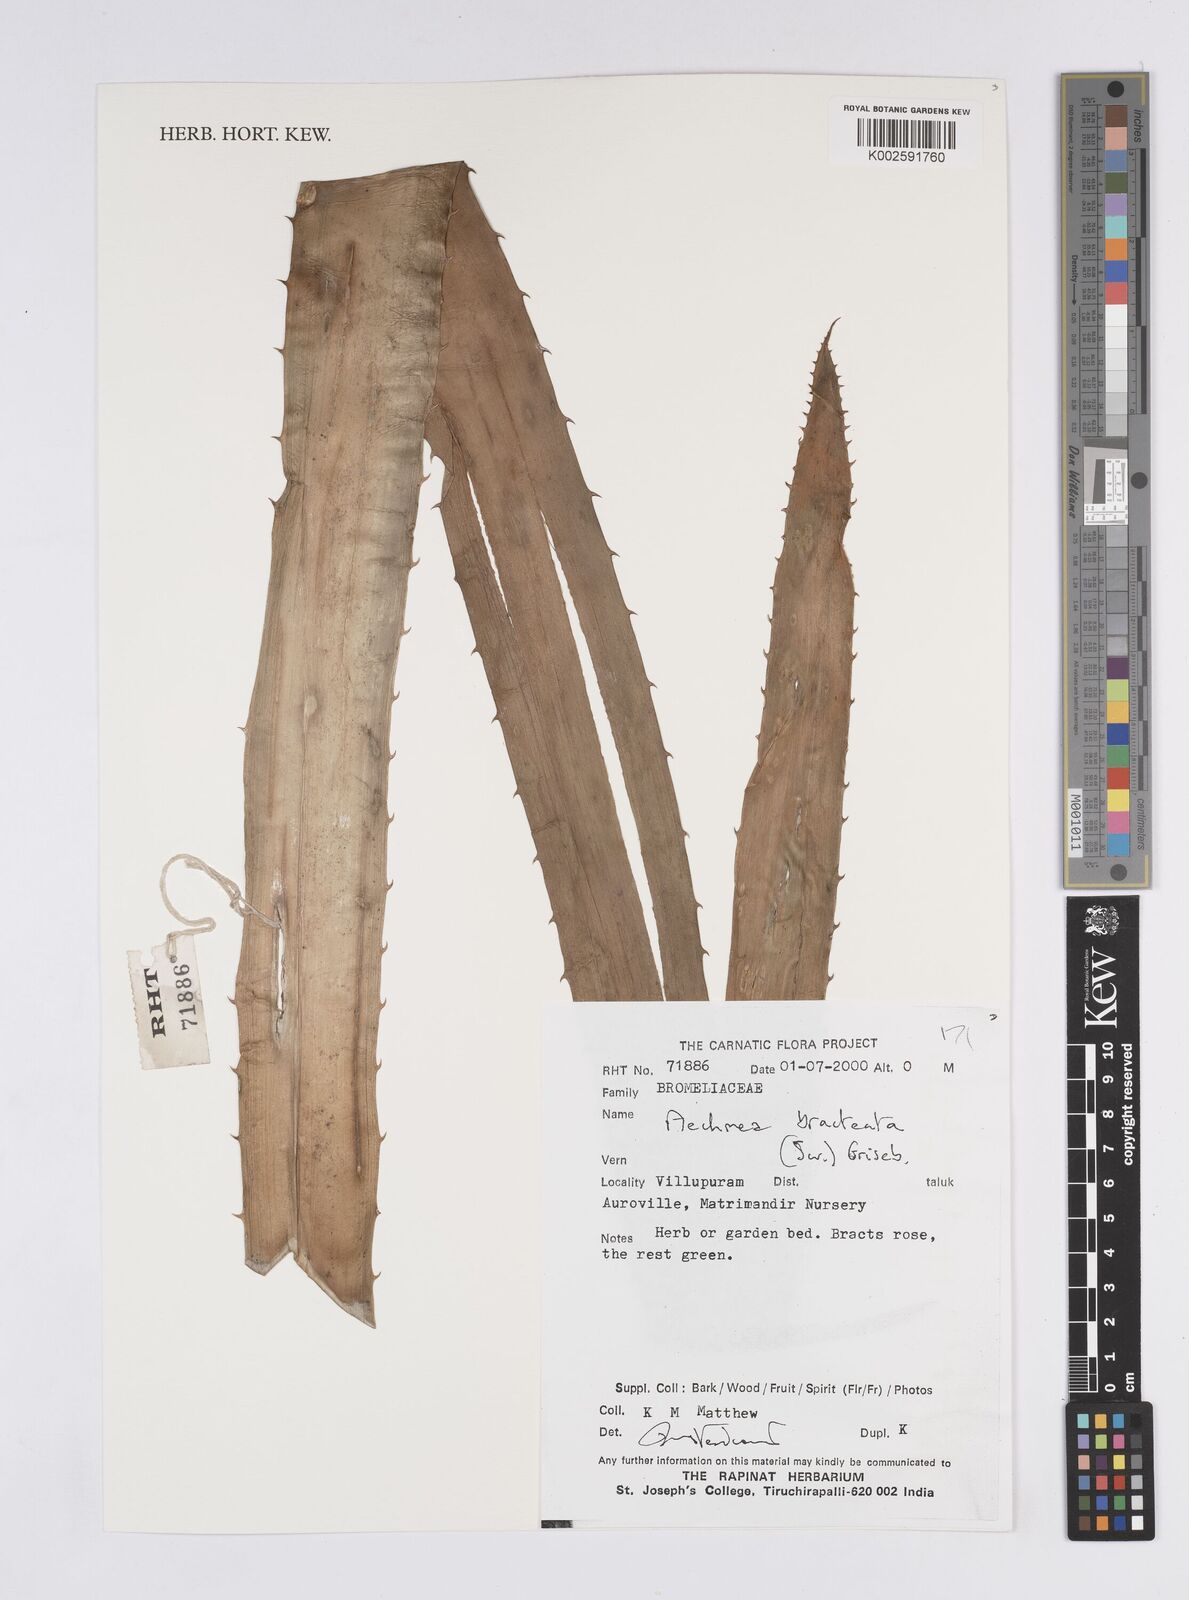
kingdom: Plantae
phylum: Tracheophyta
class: Liliopsida
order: Poales
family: Bromeliaceae
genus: Aechmea
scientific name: Aechmea bracteata
